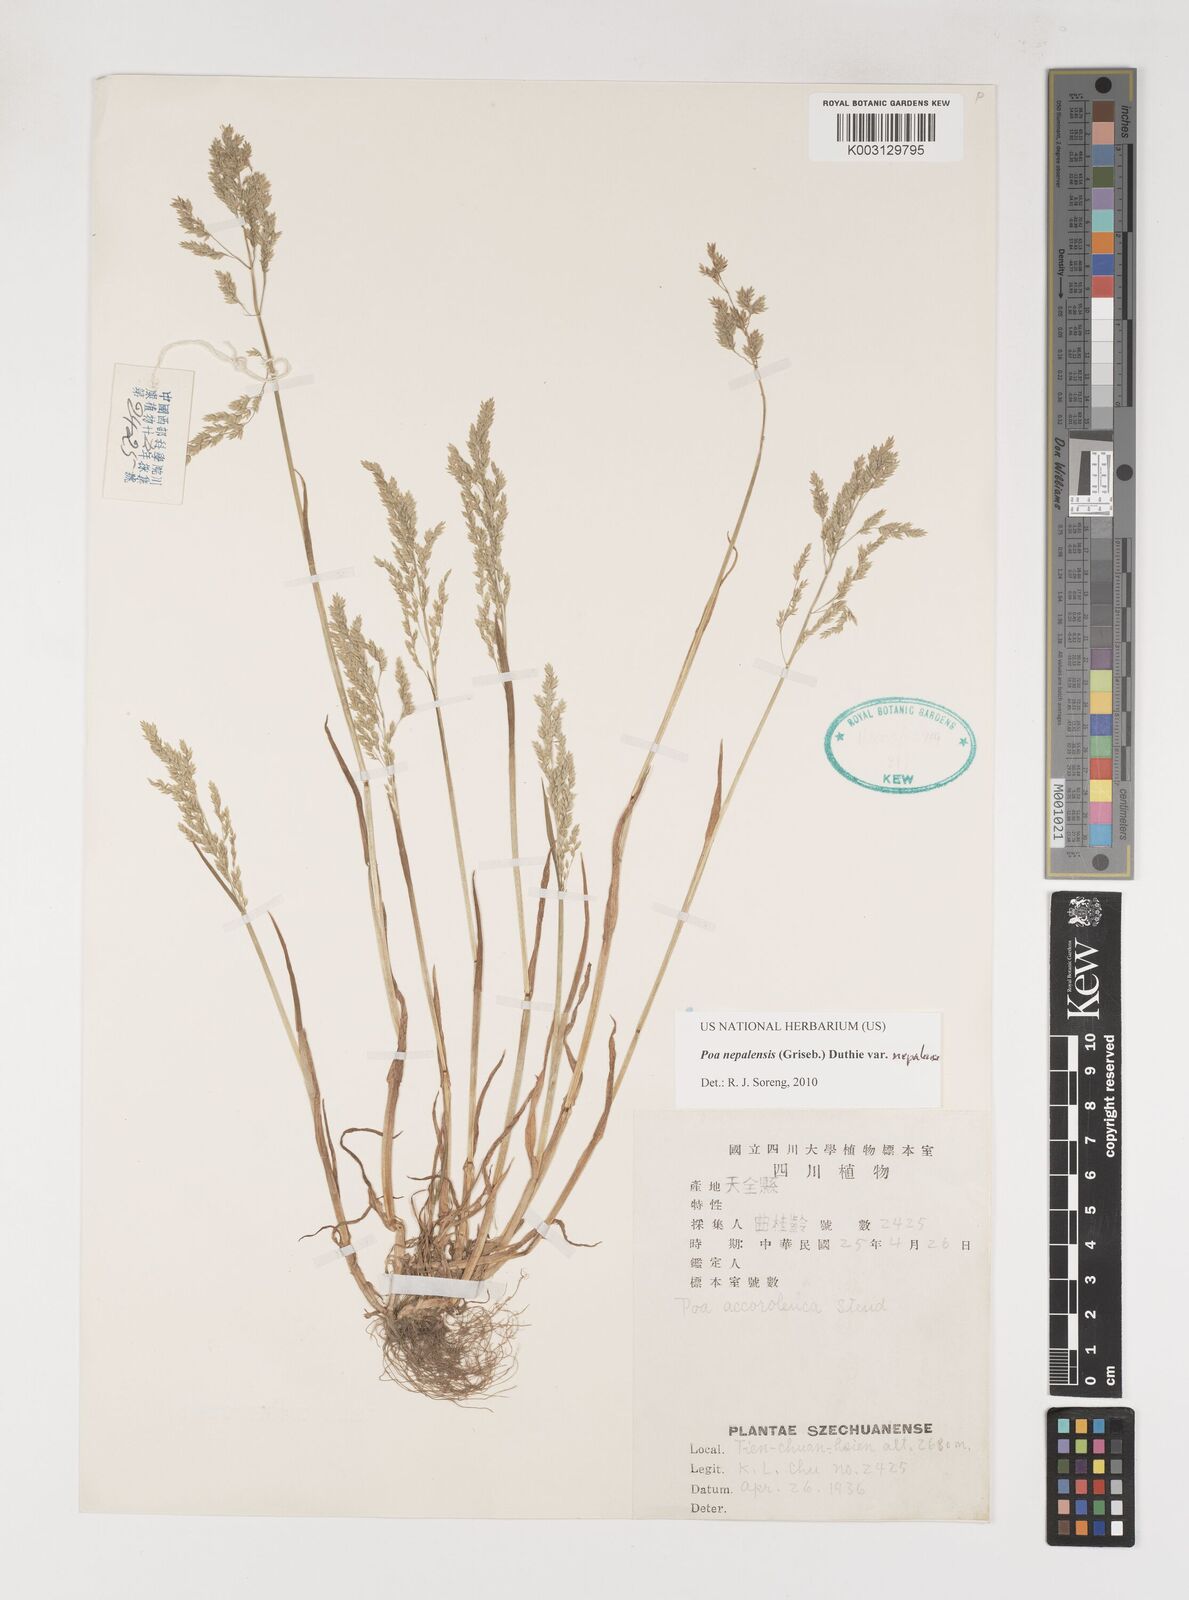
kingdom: Plantae
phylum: Tracheophyta
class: Liliopsida
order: Poales
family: Poaceae
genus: Poa
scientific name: Poa nepalensis
